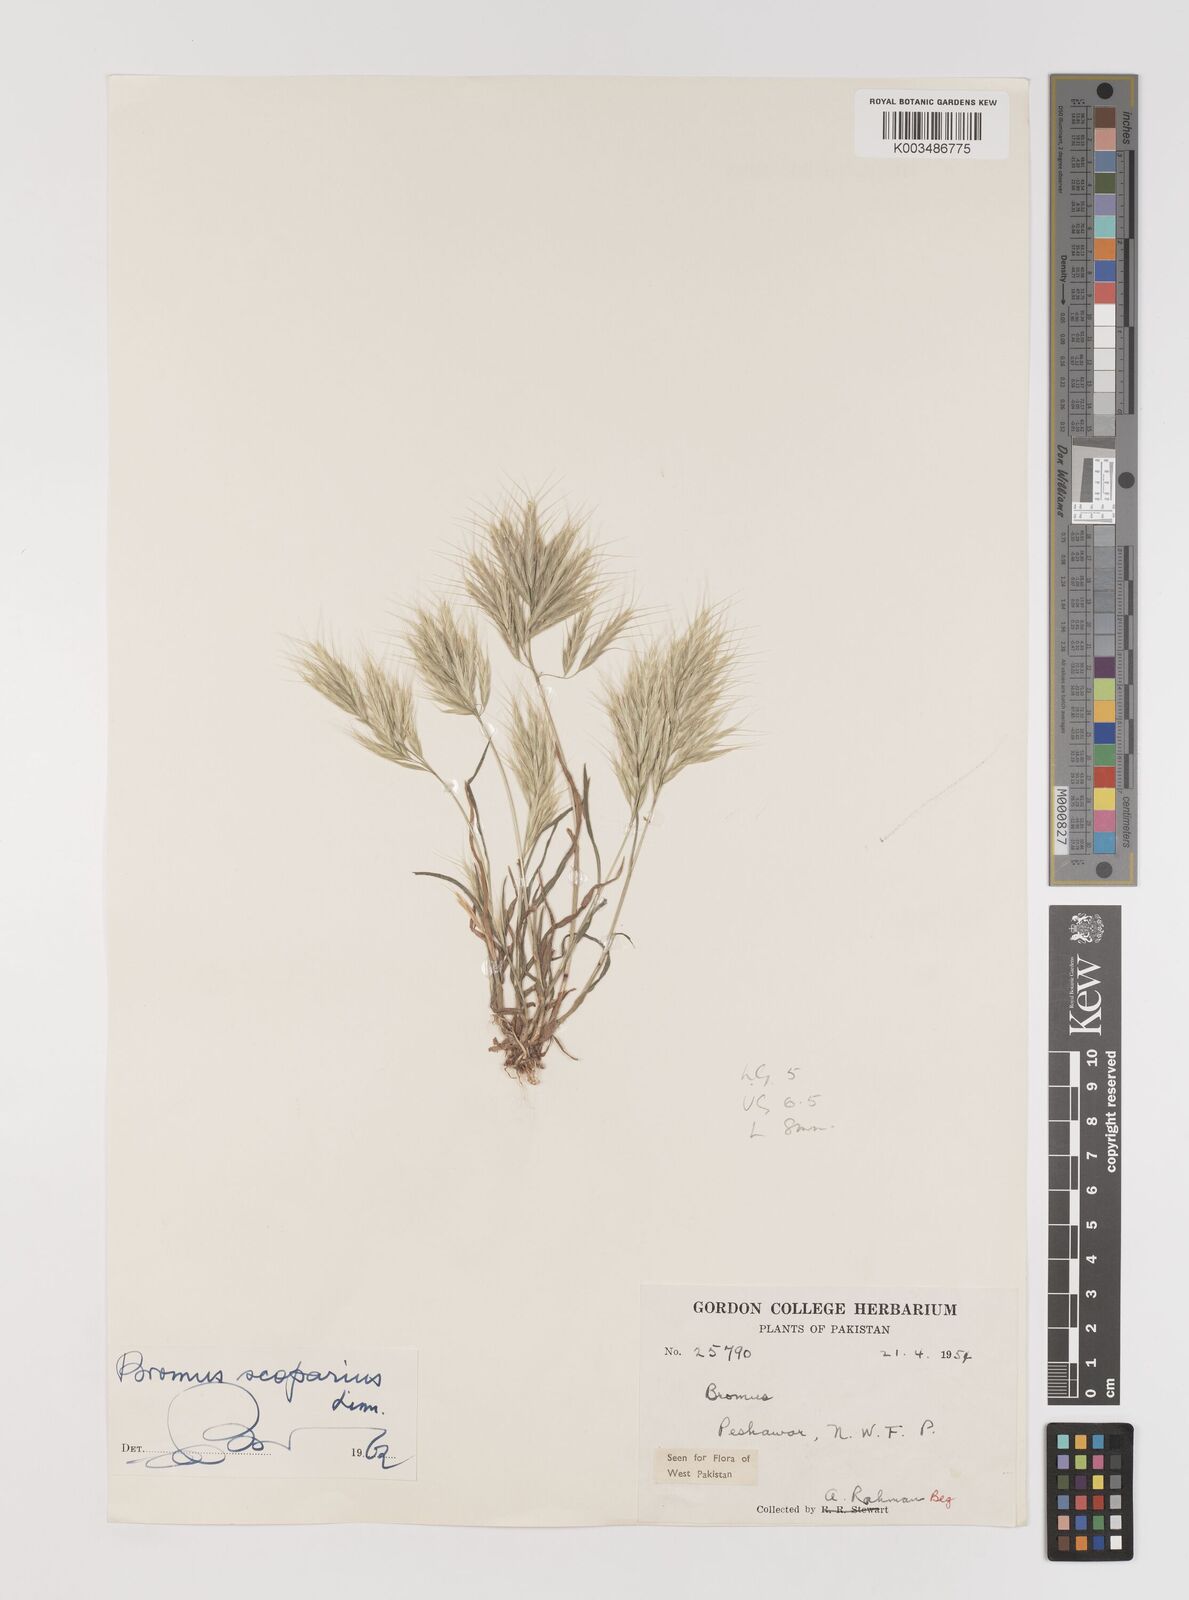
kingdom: Plantae
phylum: Tracheophyta
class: Liliopsida
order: Poales
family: Poaceae
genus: Bromus
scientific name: Bromus scoparius
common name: Broom brome
